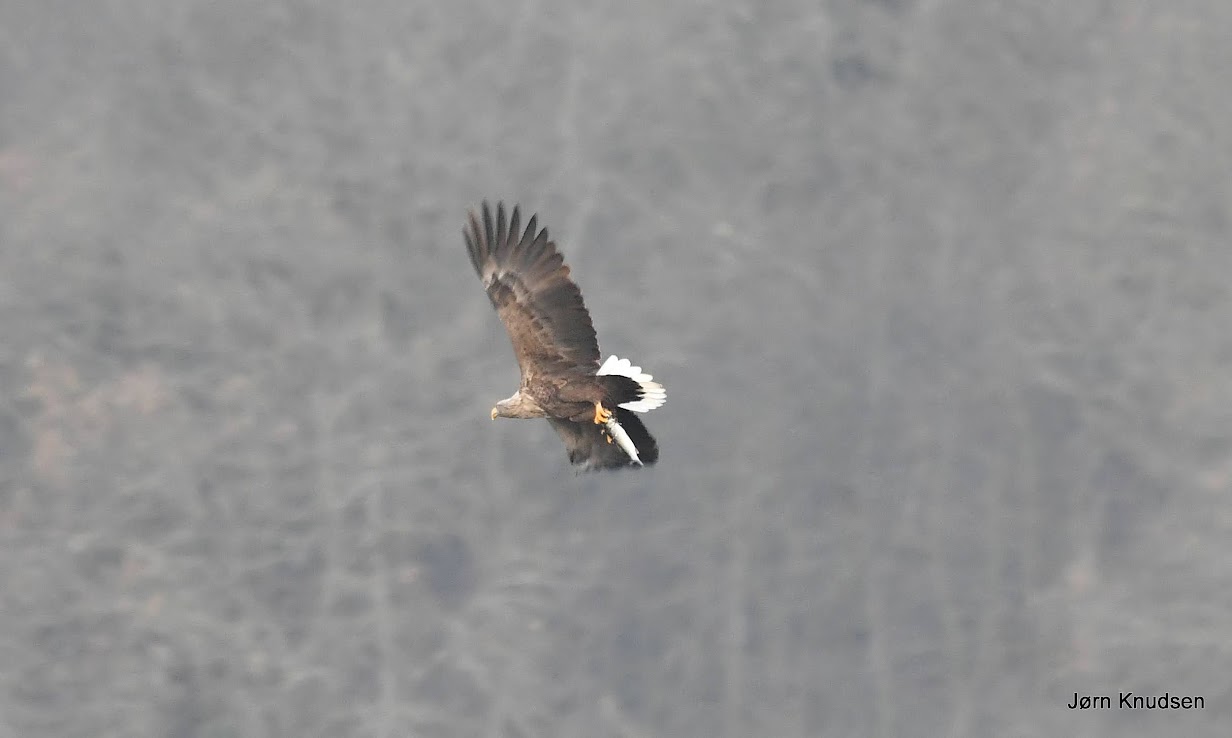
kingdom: Animalia
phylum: Chordata
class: Aves
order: Accipitriformes
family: Accipitridae
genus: Haliaeetus
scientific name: Haliaeetus albicilla
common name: Havørn
